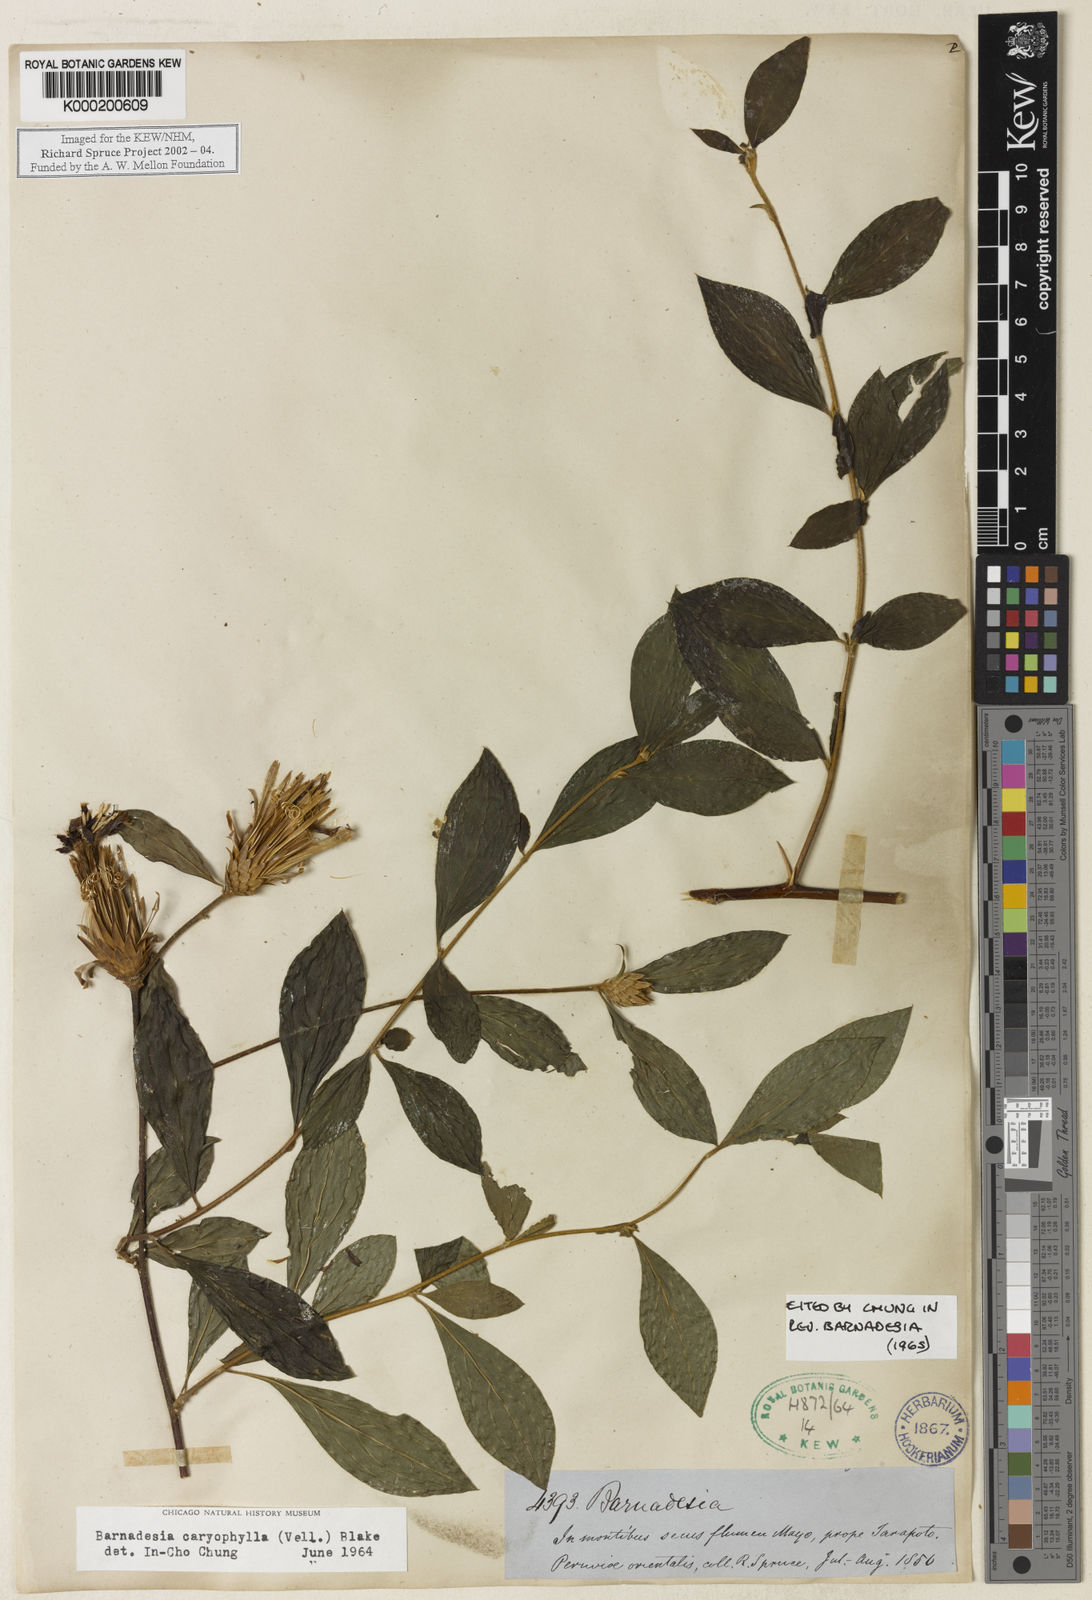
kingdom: Plantae
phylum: Tracheophyta
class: Magnoliopsida
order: Asterales
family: Asteraceae
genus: Barnadesia
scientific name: Barnadesia caryophylla
